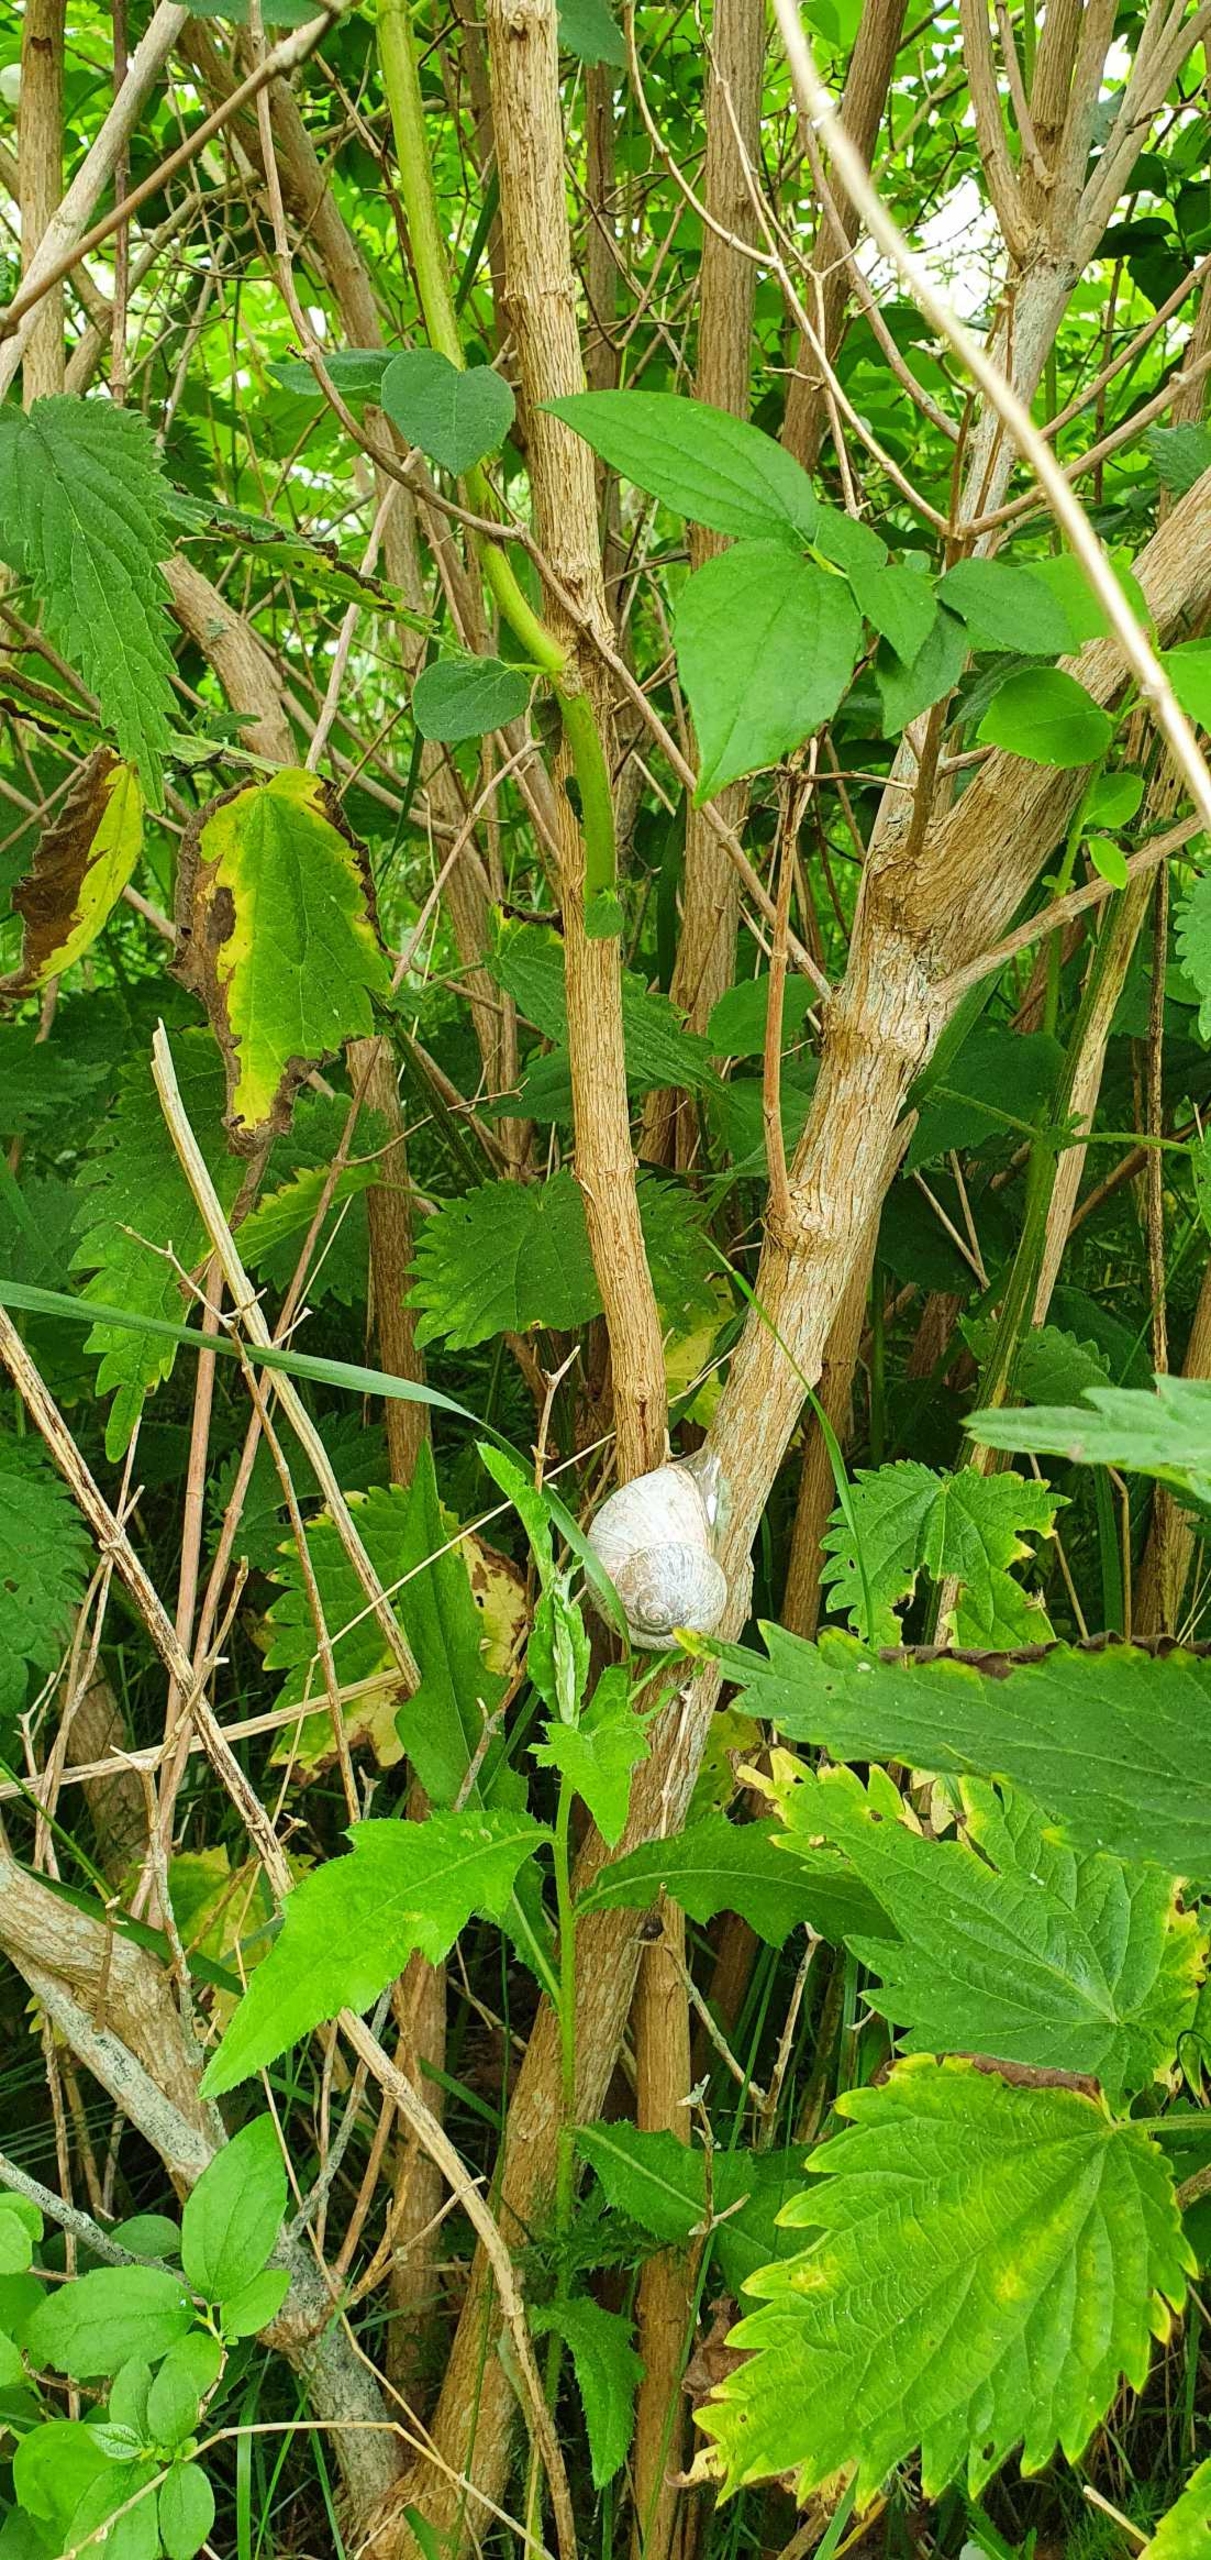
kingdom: Animalia
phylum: Mollusca
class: Gastropoda
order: Stylommatophora
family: Helicidae
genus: Helix
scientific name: Helix pomatia
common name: Vinbjergsnegl
